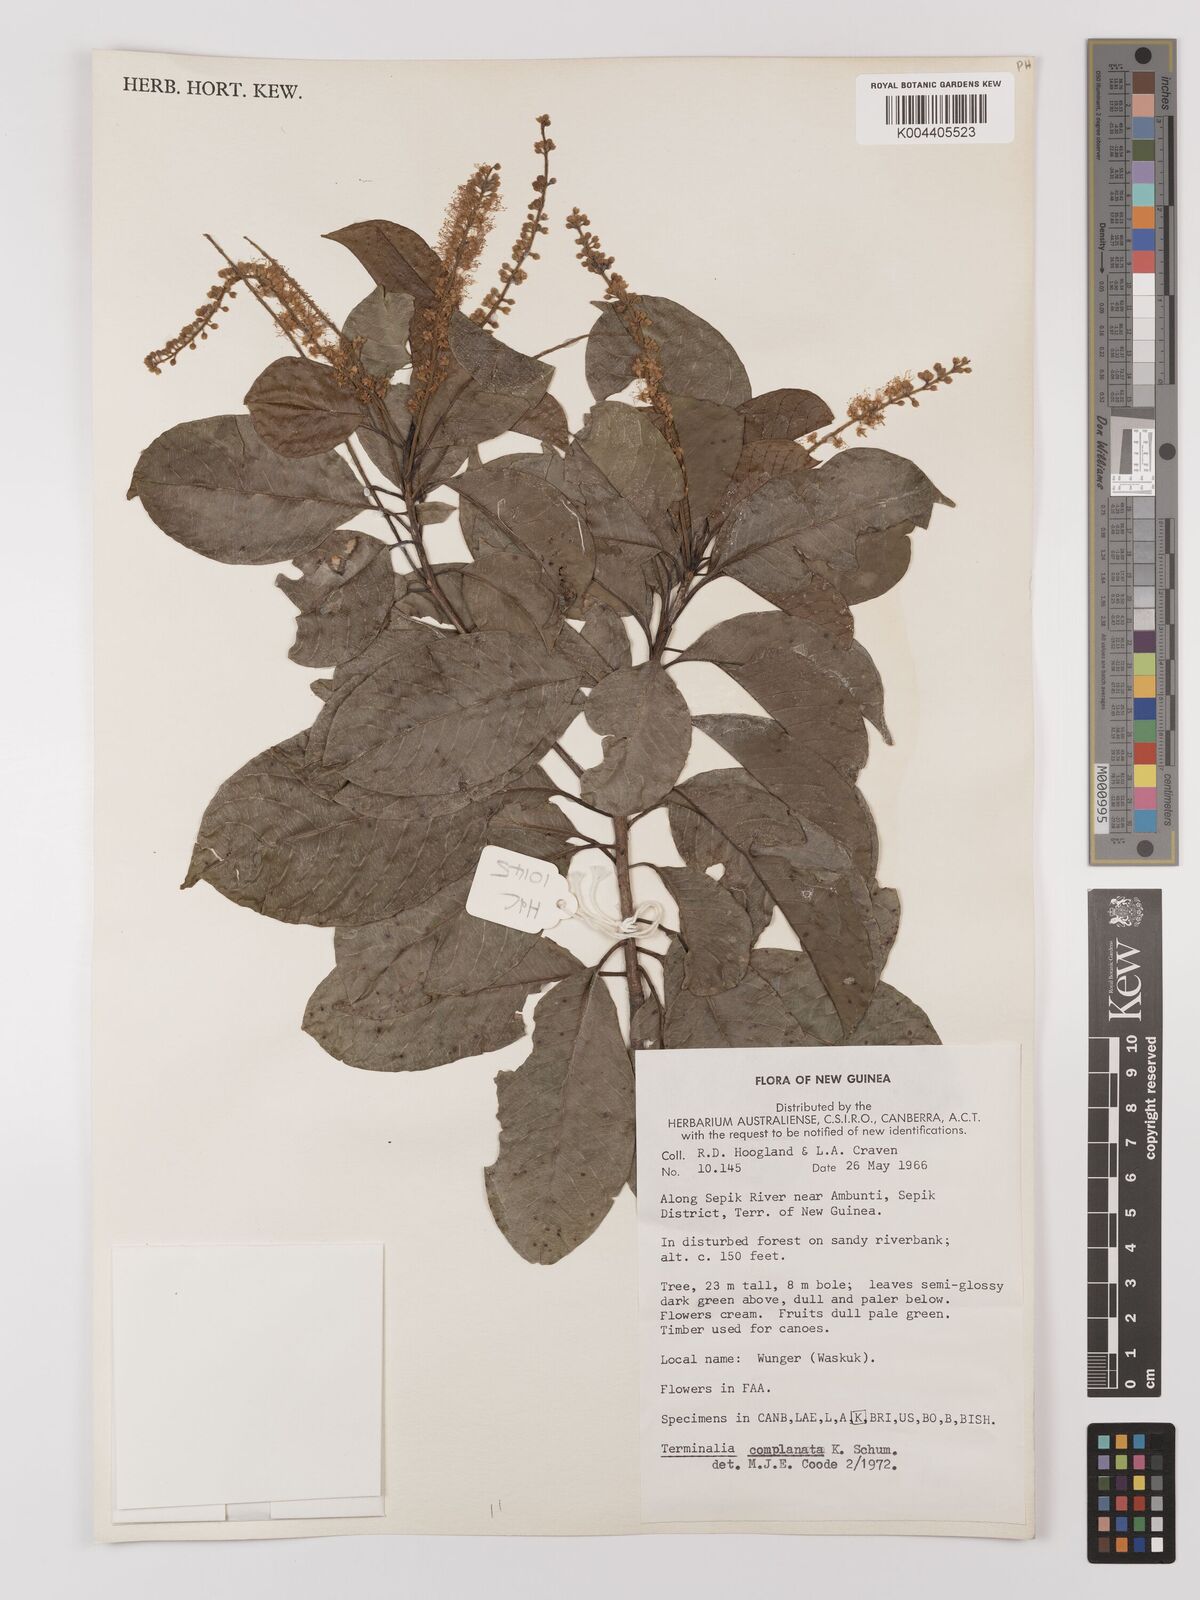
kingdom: Plantae
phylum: Tracheophyta
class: Magnoliopsida
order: Myrtales
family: Combretaceae
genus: Terminalia
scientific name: Terminalia
